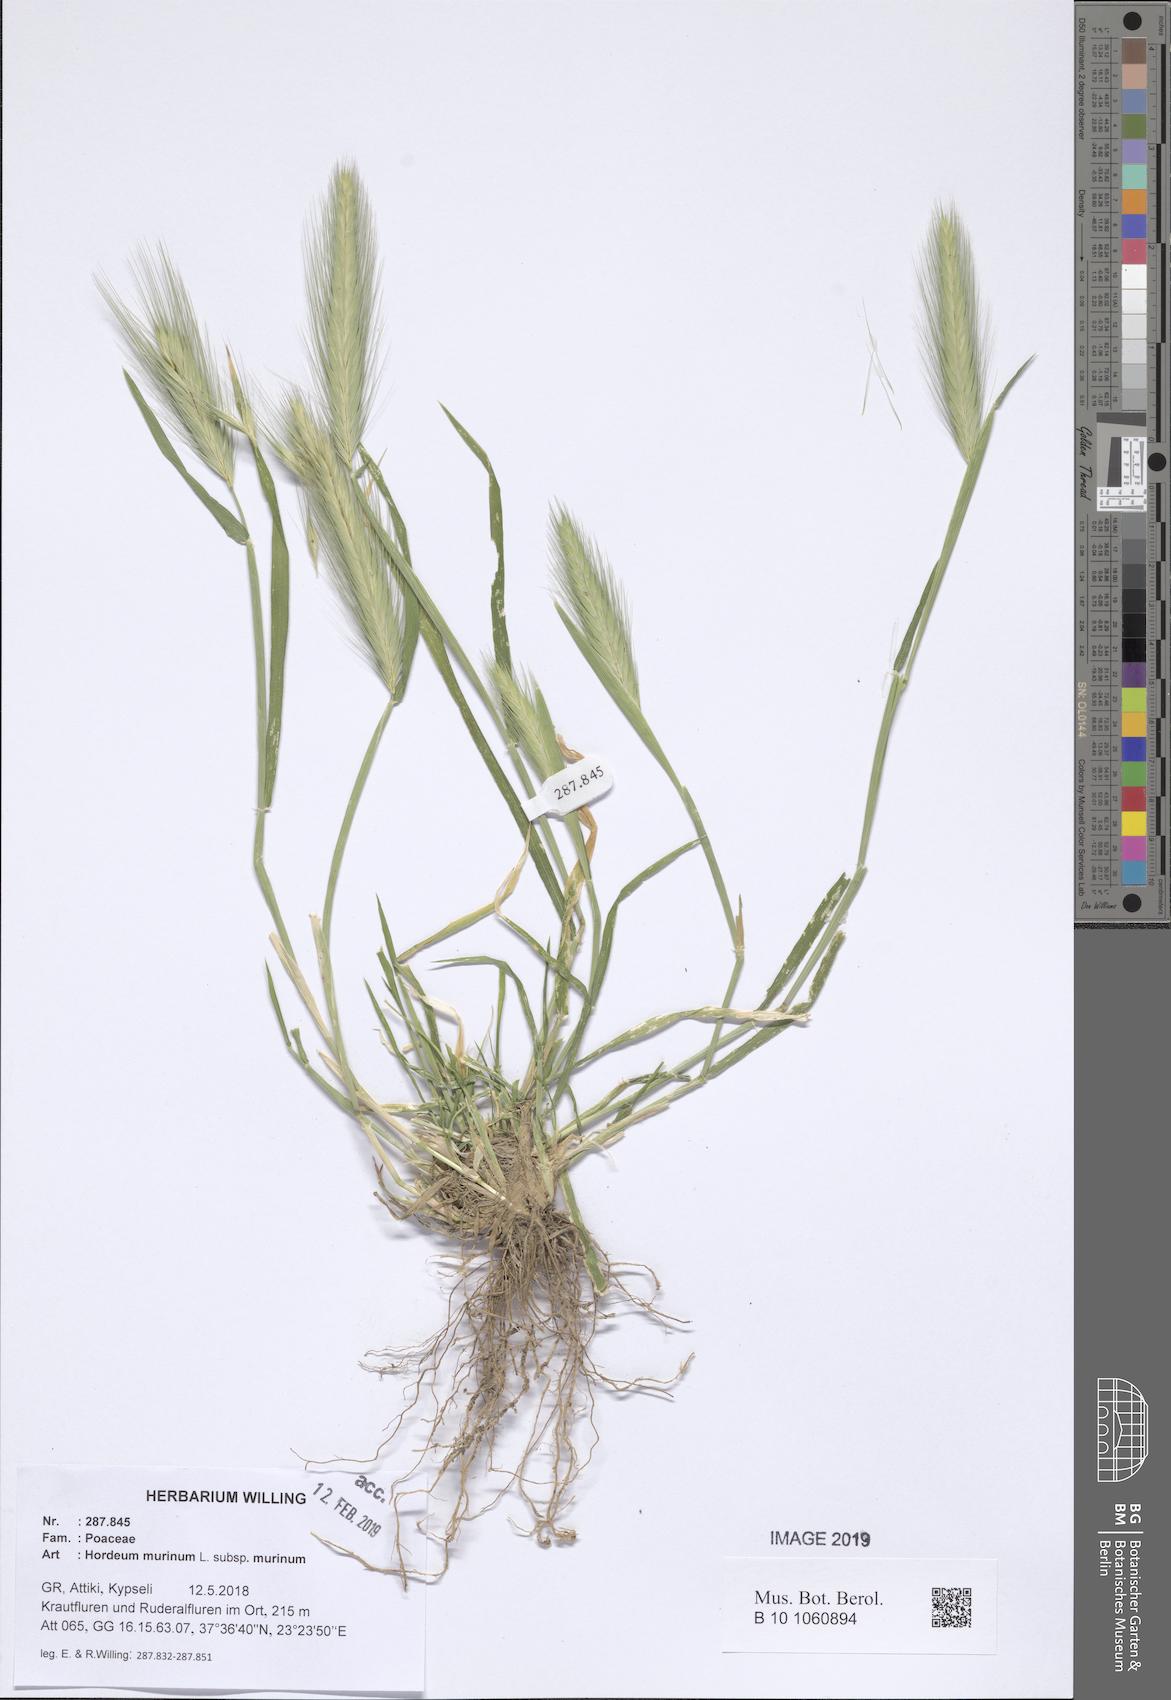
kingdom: Plantae
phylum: Tracheophyta
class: Liliopsida
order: Poales
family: Poaceae
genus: Hordeum
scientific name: Hordeum murinum
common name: Wall barley
